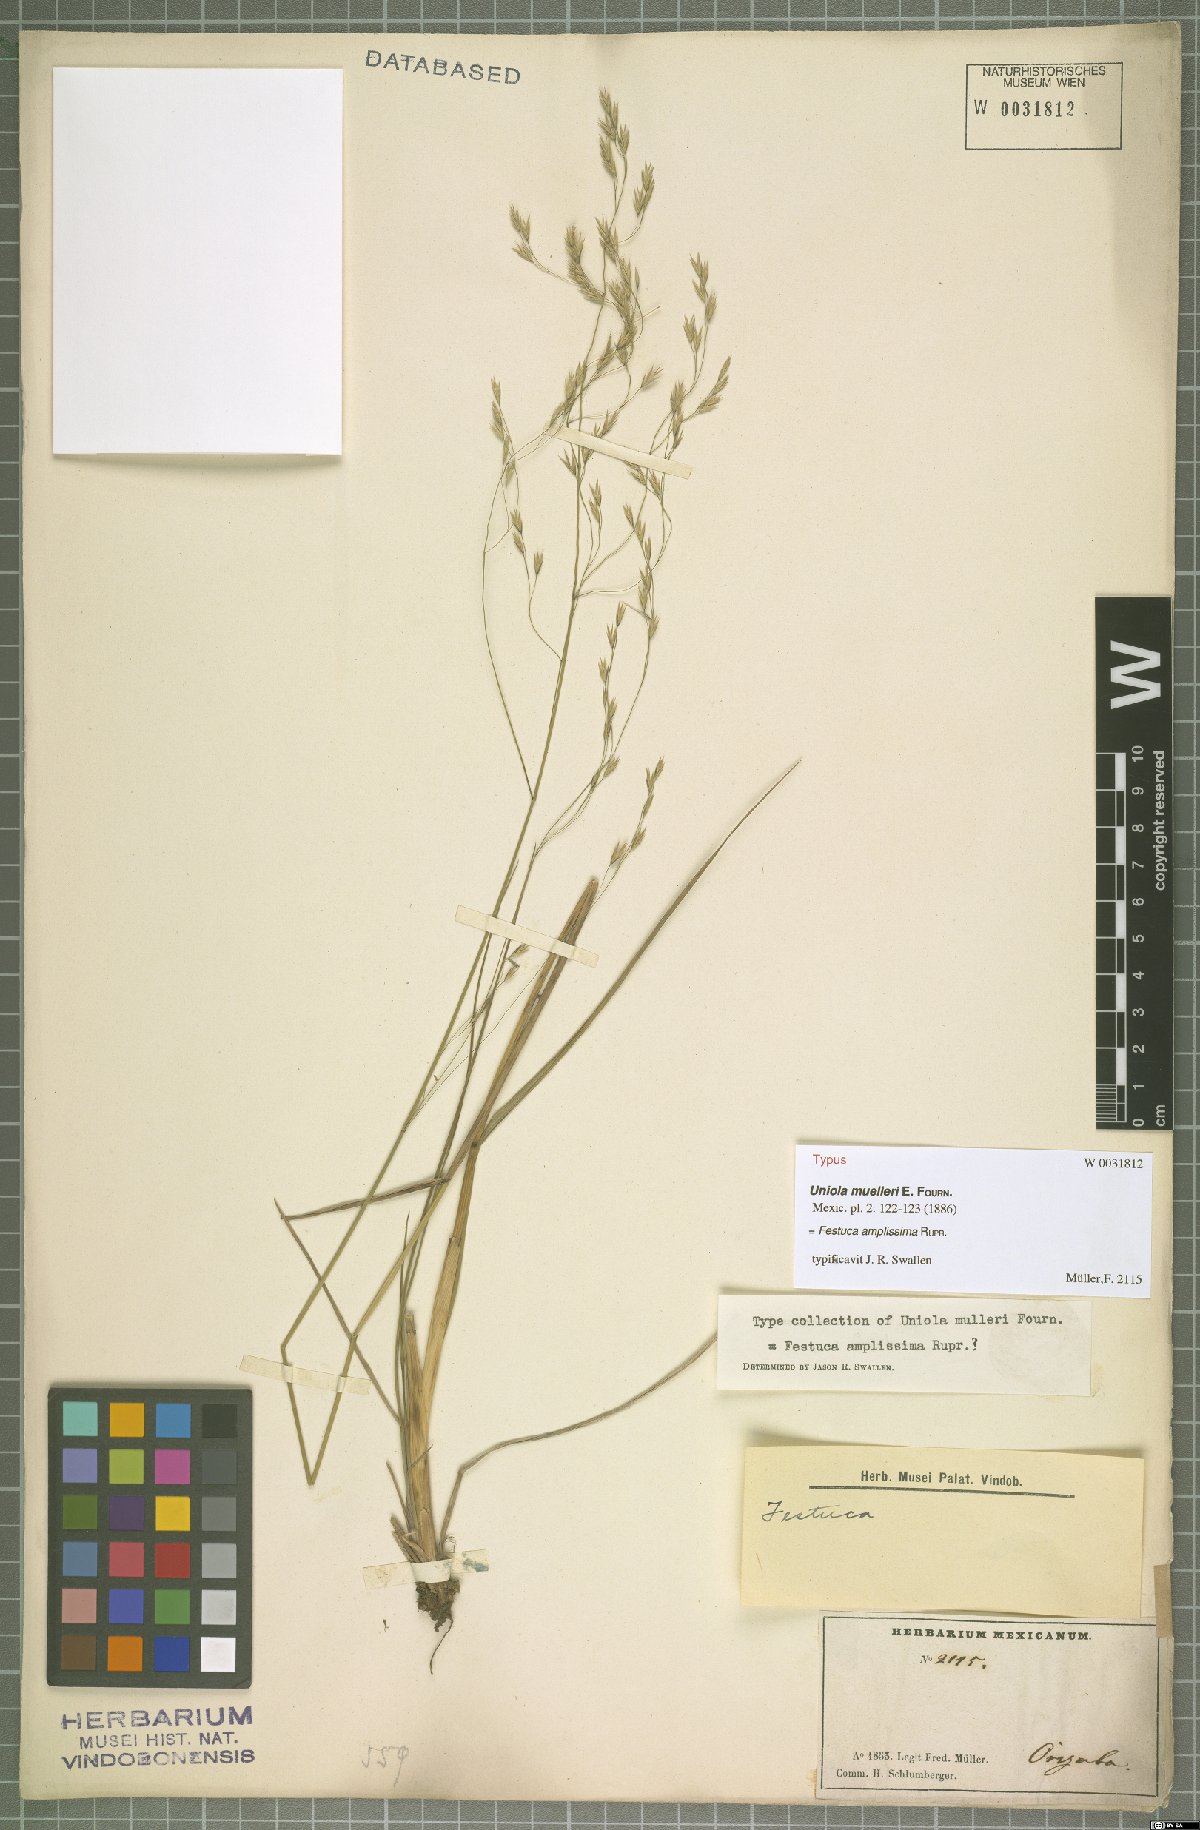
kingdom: Plantae
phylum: Tracheophyta
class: Liliopsida
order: Poales
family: Poaceae
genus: Festuca
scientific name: Festuca amplissima
